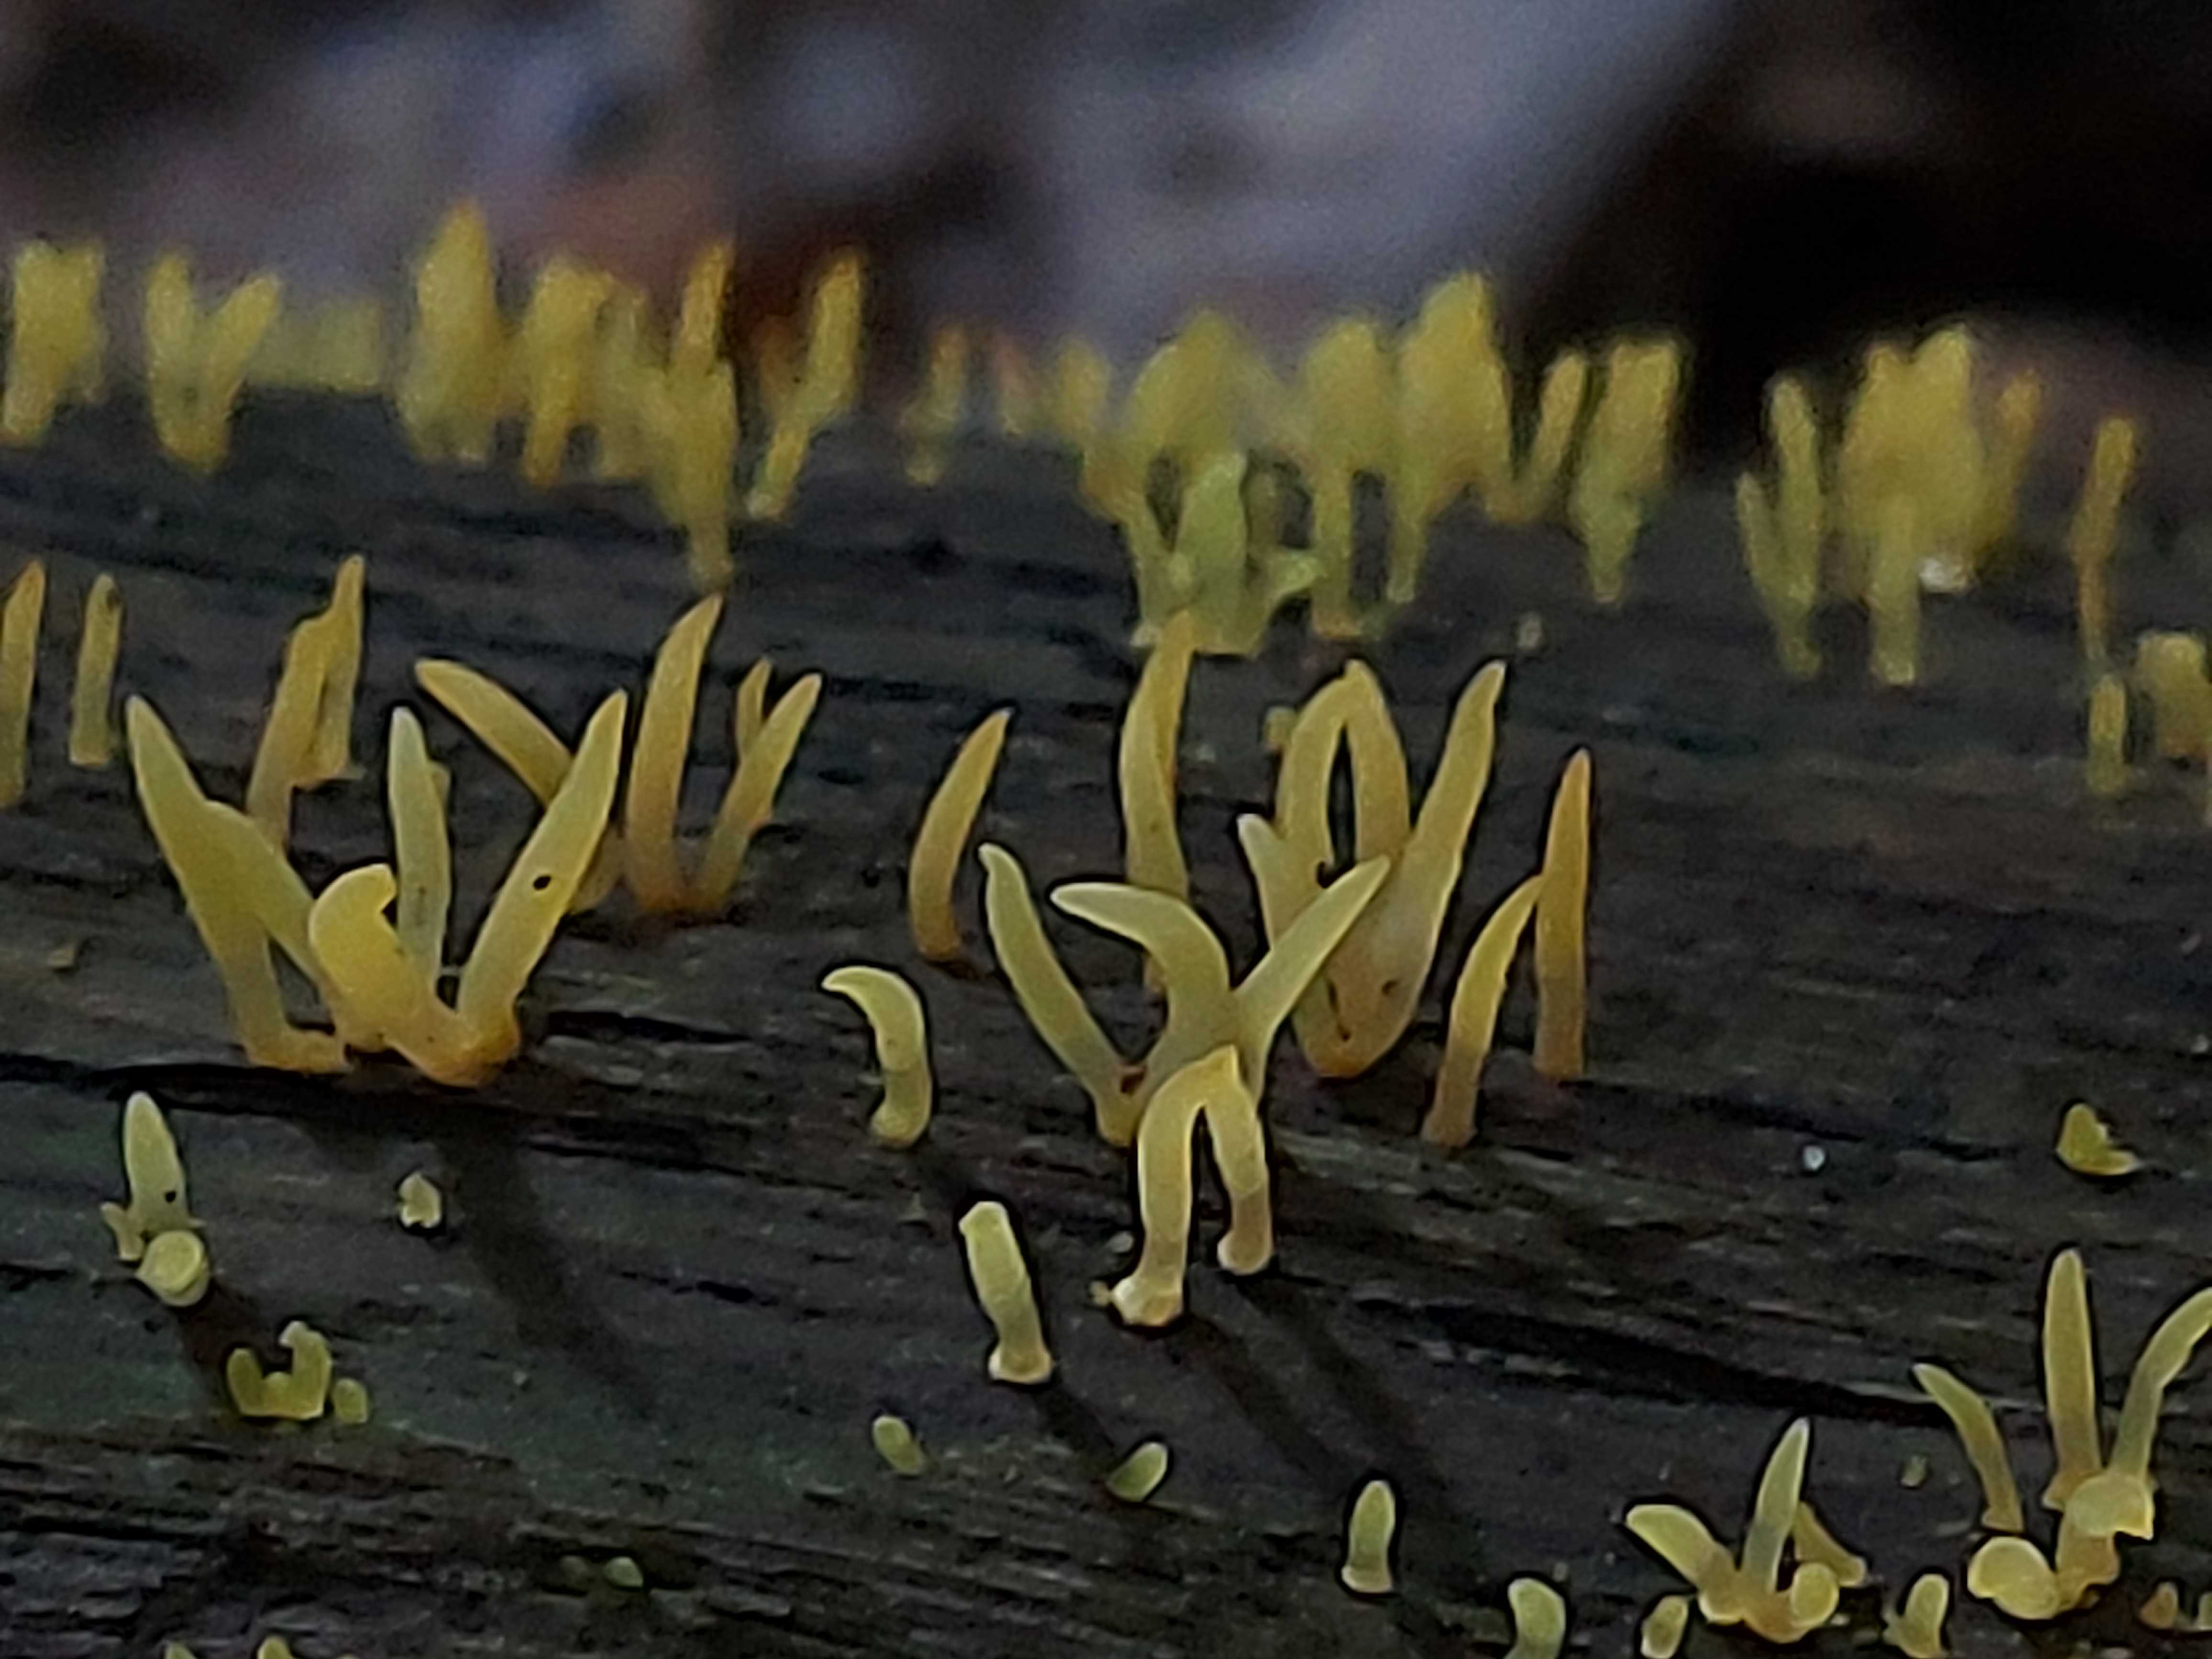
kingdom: Fungi
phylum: Basidiomycota
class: Dacrymycetes
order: Dacrymycetales
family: Dacrymycetaceae
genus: Calocera
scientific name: Calocera cornea
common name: liden guldgaffel
